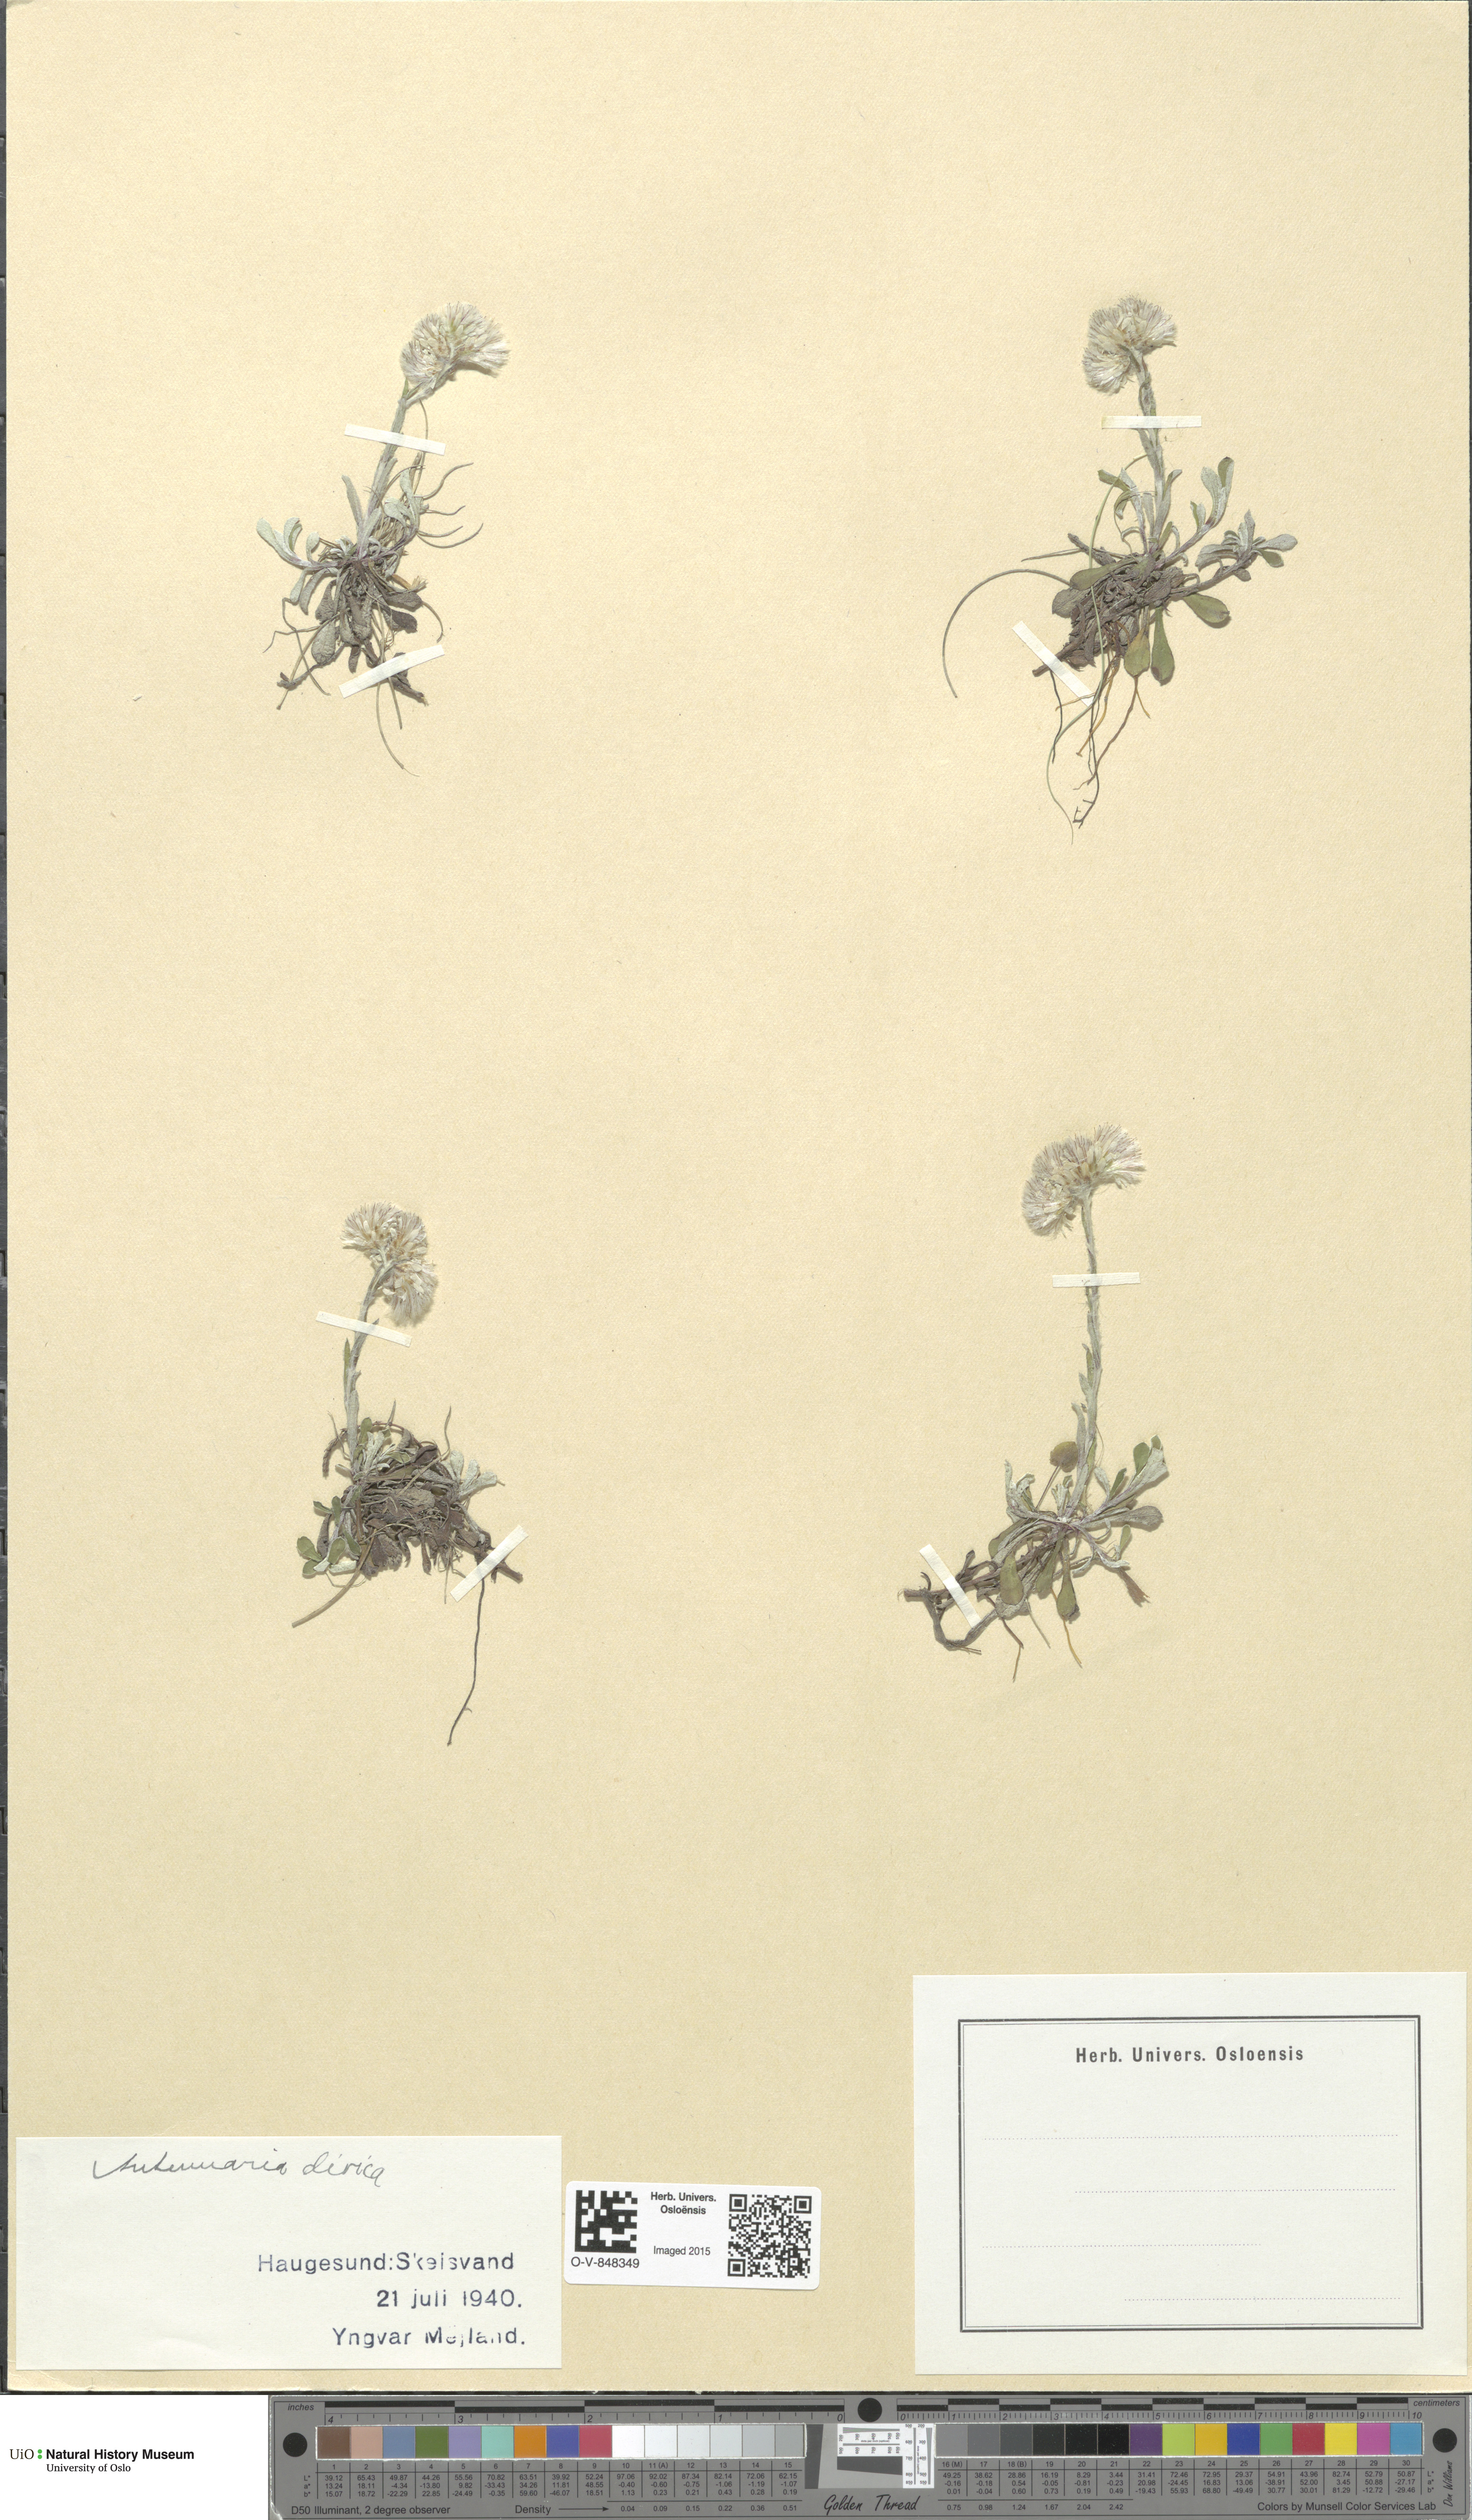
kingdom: Plantae
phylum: Tracheophyta
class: Magnoliopsida
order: Asterales
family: Asteraceae
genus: Antennaria
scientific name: Antennaria dioica
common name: Mountain everlasting
